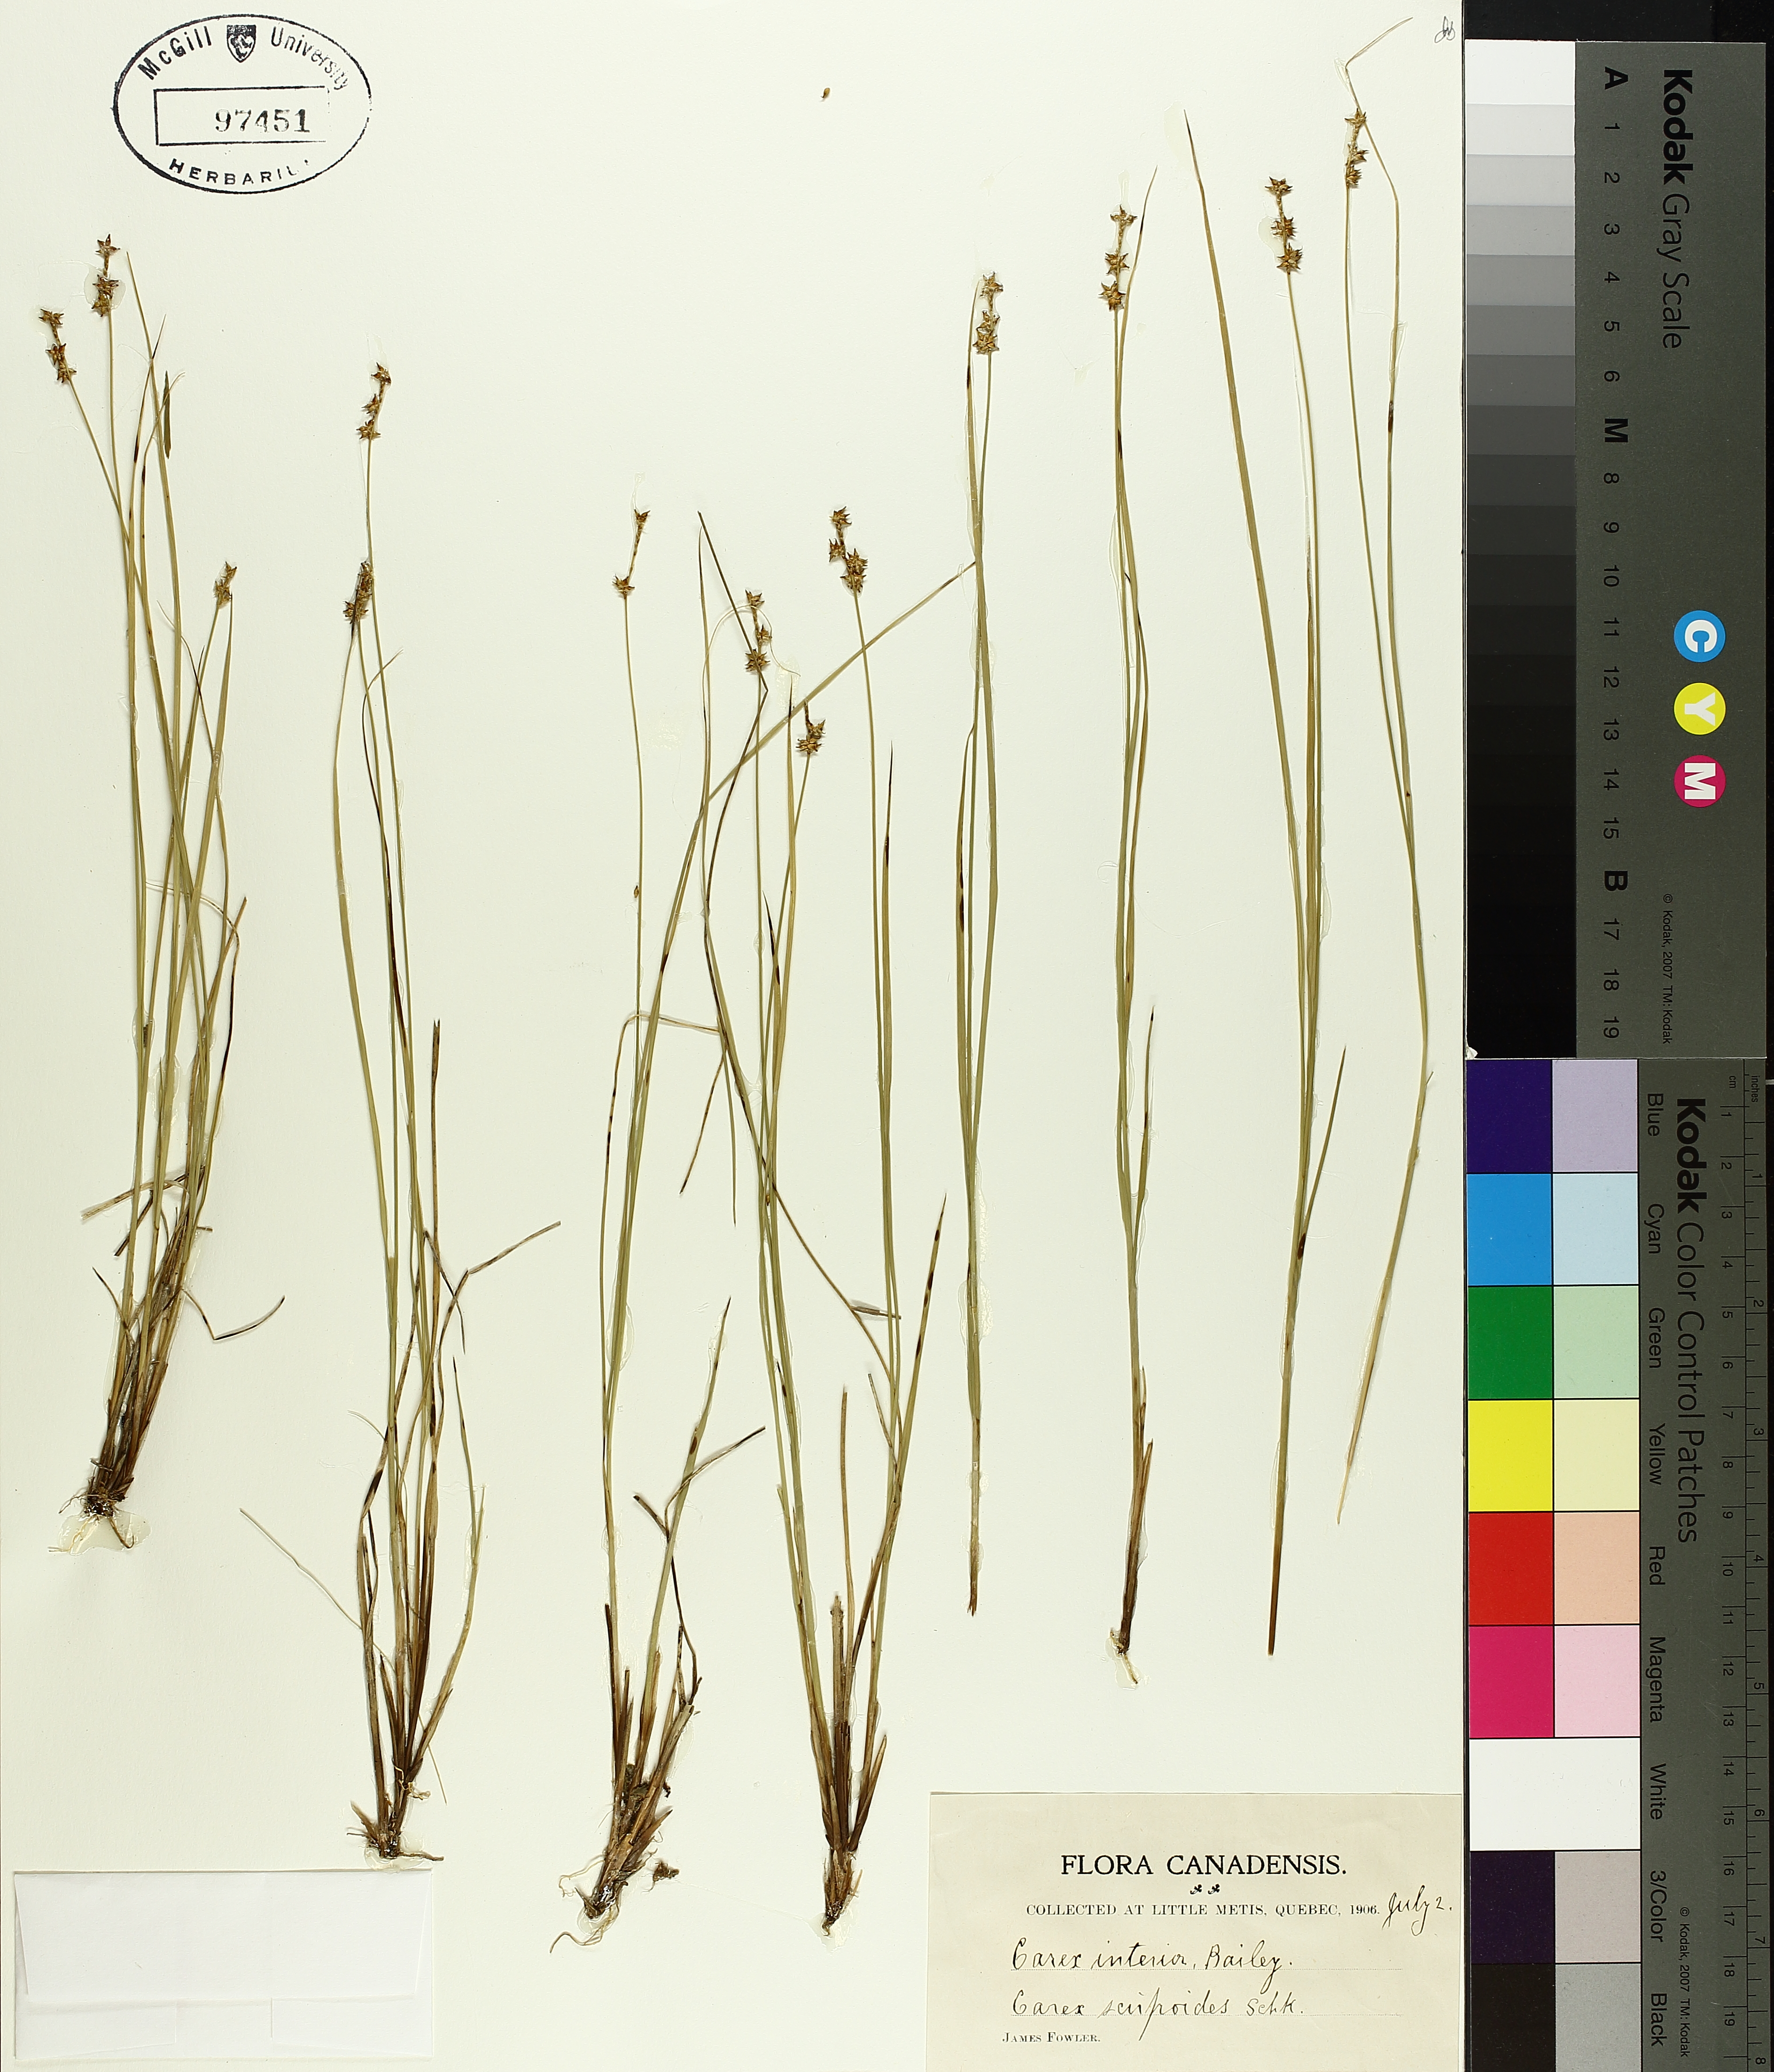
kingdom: Plantae
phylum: Tracheophyta
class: Liliopsida
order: Poales
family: Cyperaceae
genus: Carex
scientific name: Carex interior
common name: Inland sedge
